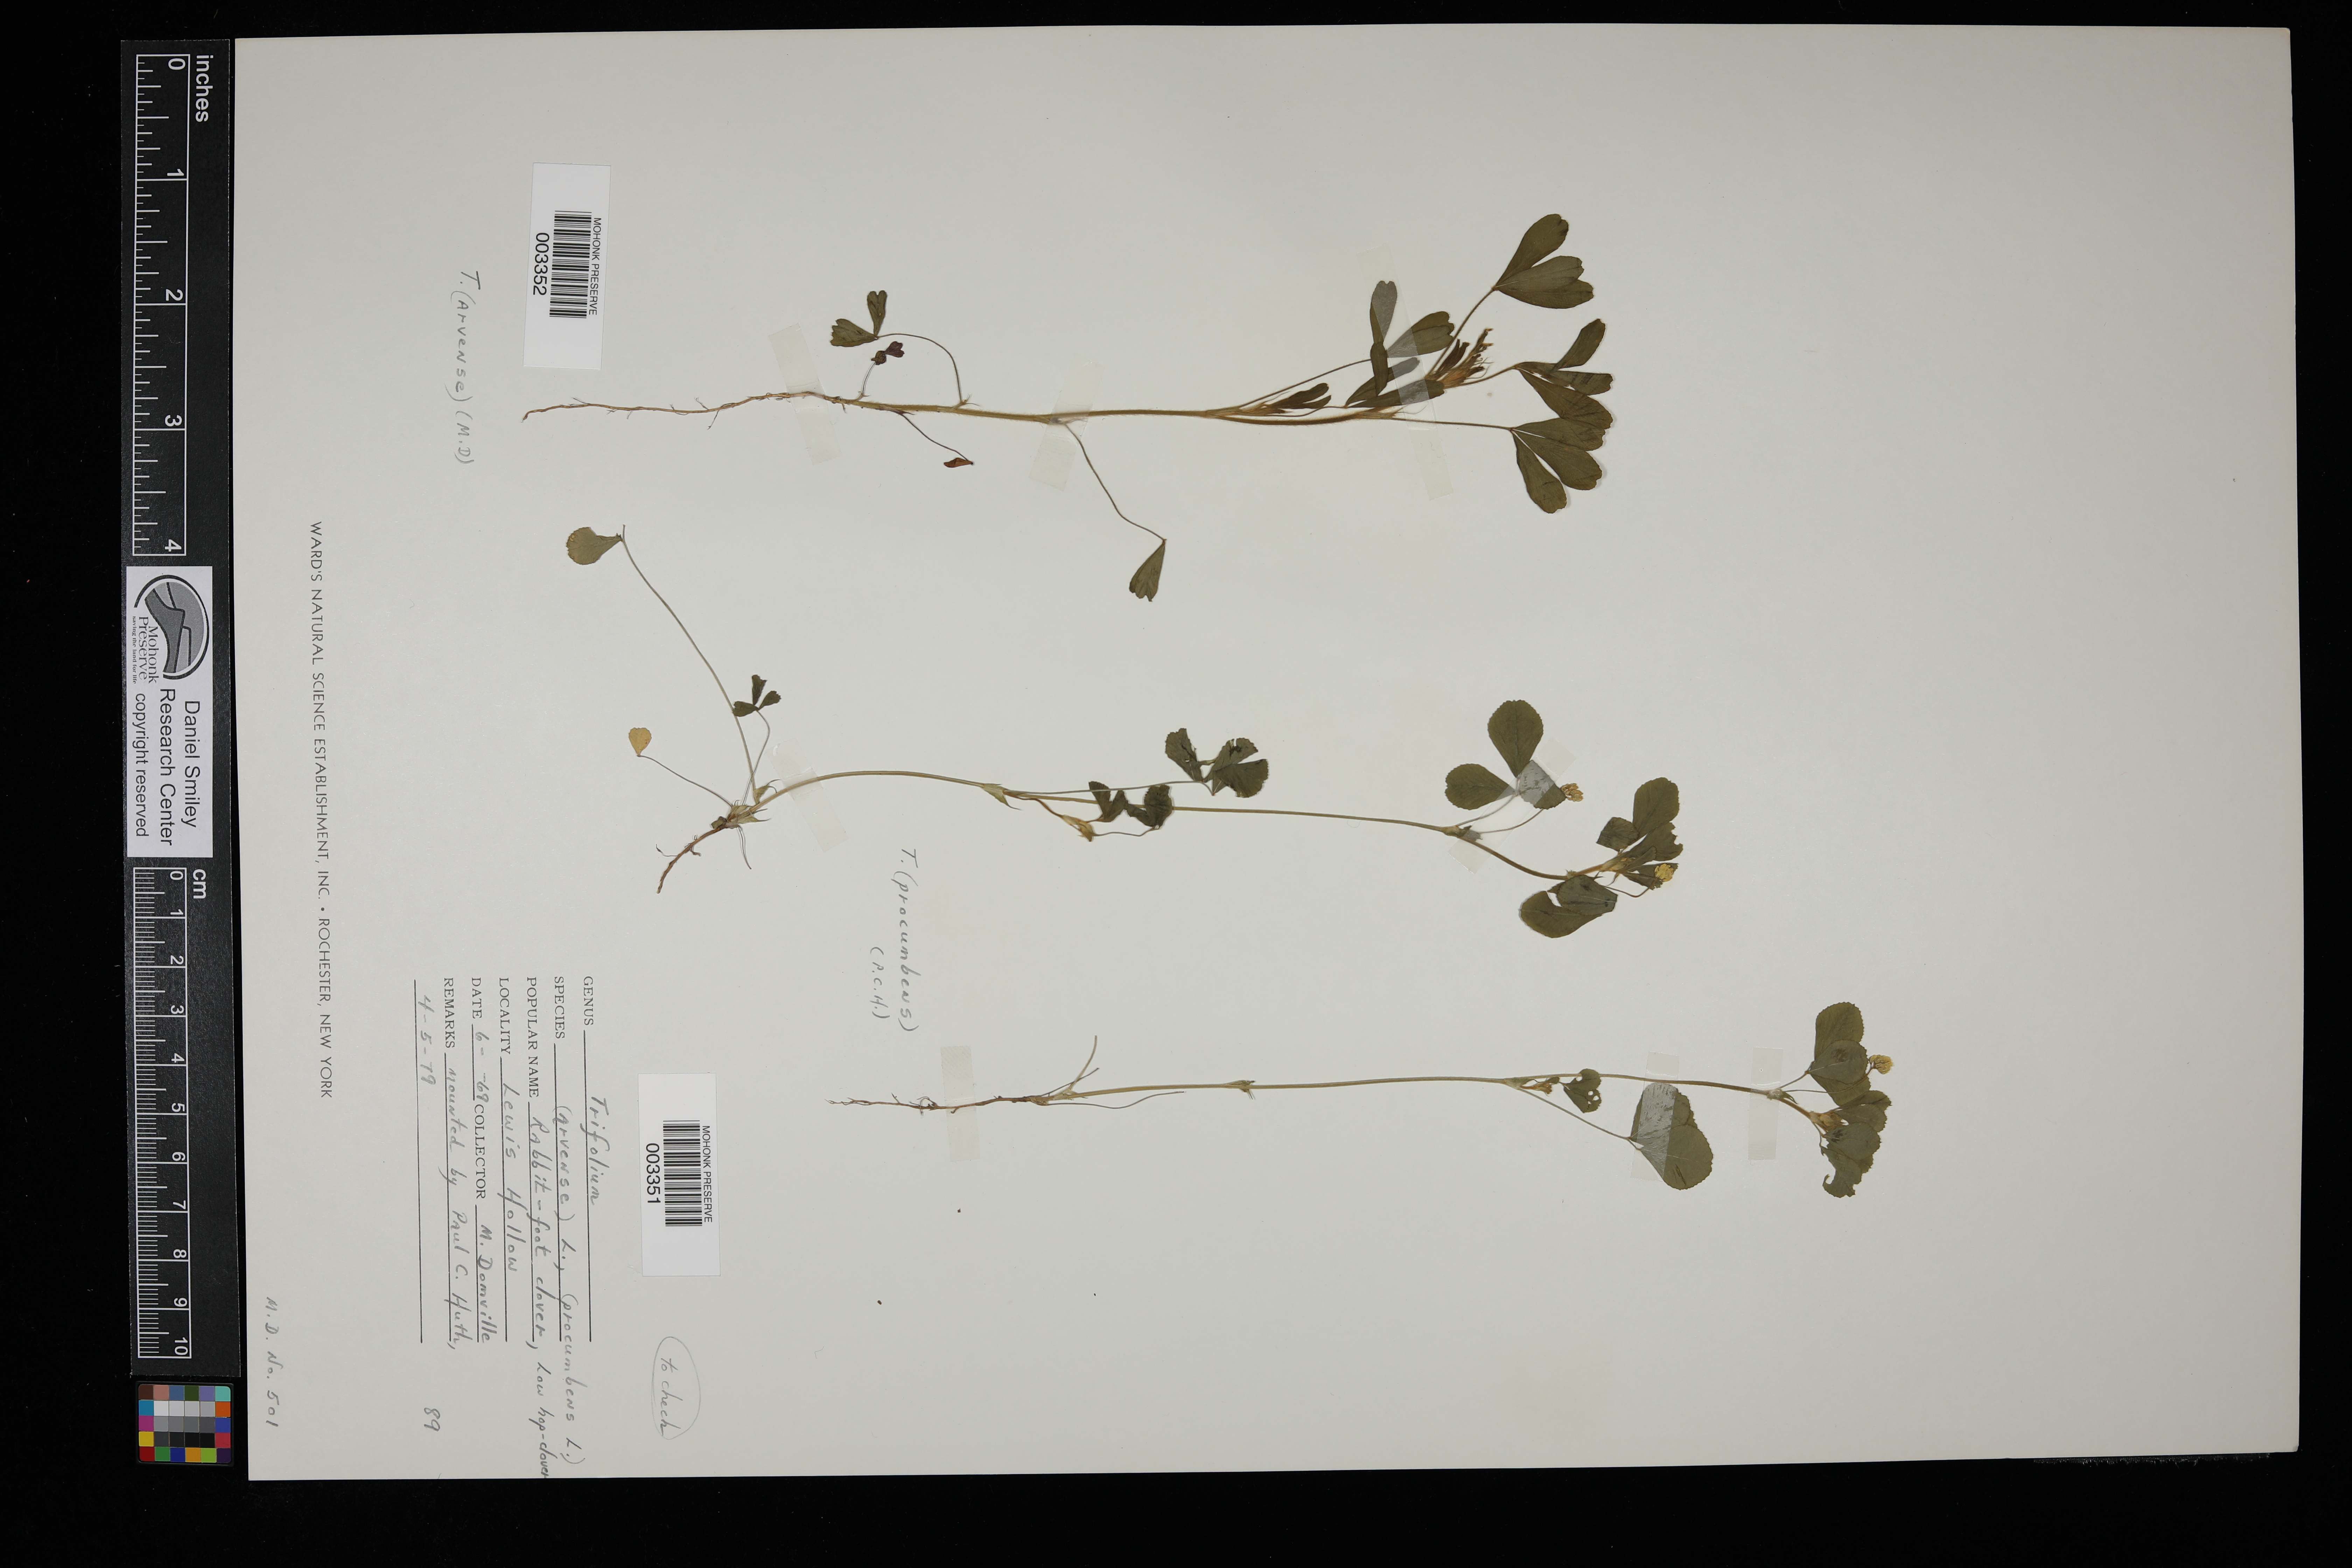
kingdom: Plantae
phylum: Tracheophyta
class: Magnoliopsida
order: Fabales
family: Fabaceae
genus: Trifolium
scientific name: Trifolium campestre
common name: Field clover
